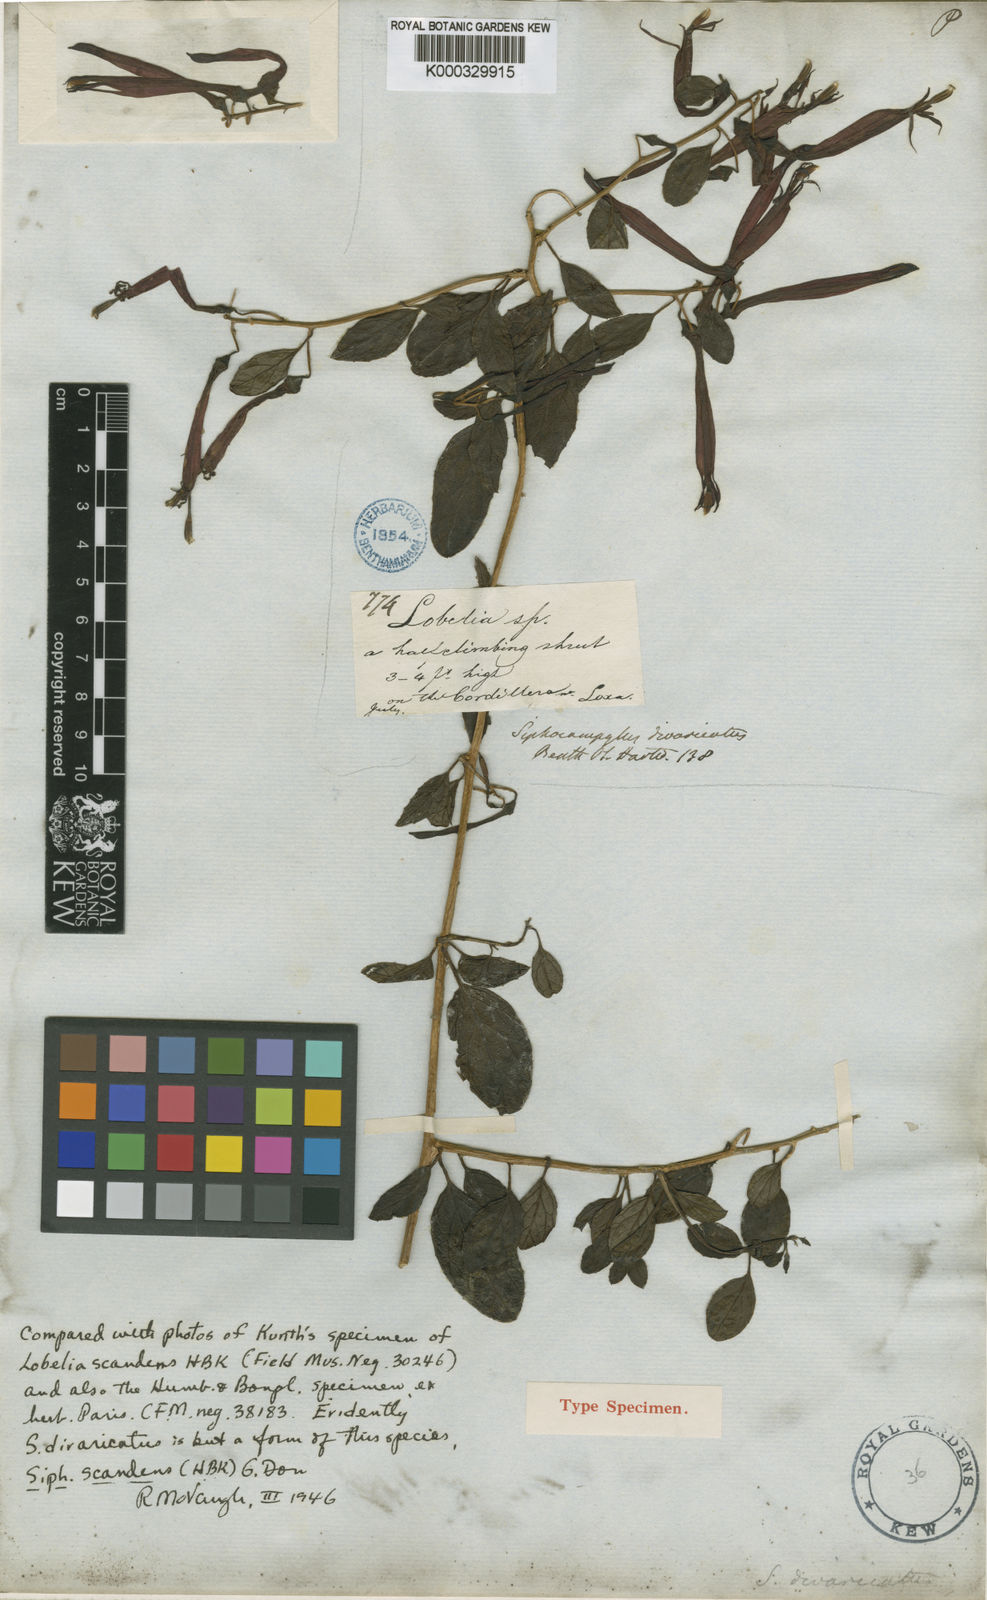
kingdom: Plantae
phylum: Tracheophyta
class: Magnoliopsida
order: Asterales
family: Campanulaceae
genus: Siphocampylus
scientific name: Siphocampylus scandens
